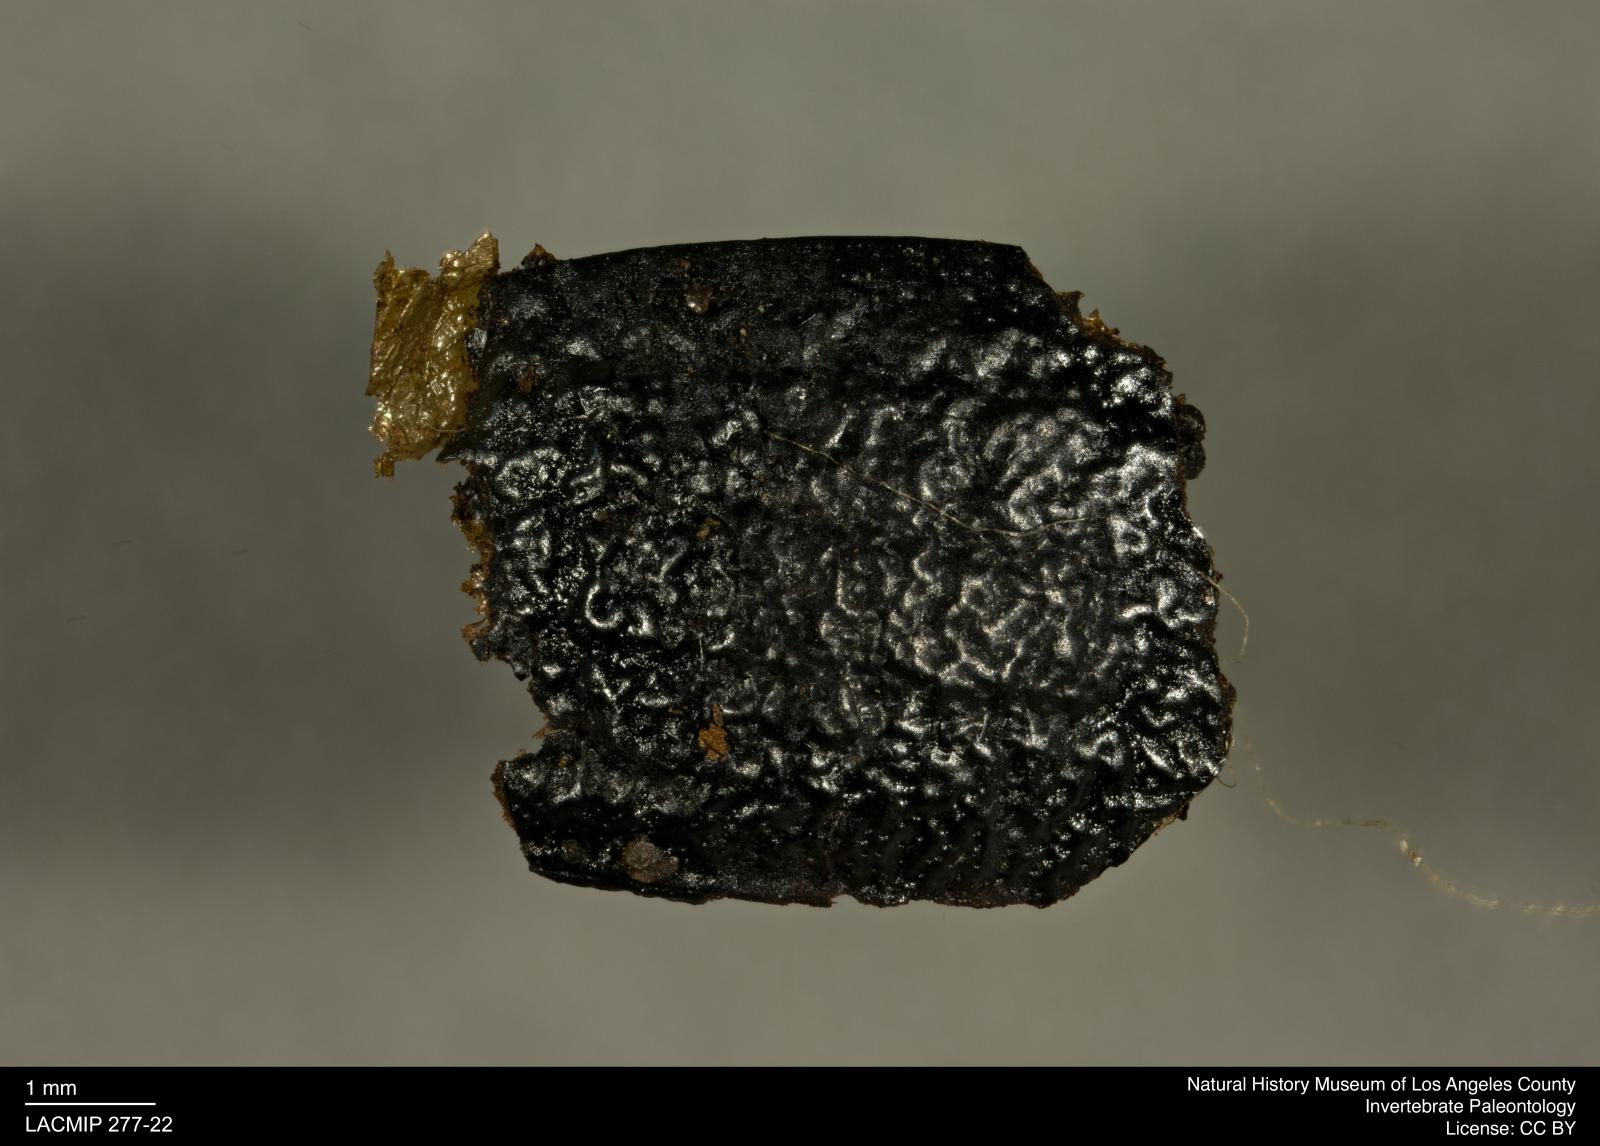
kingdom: Animalia
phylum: Arthropoda
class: Insecta
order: Coleoptera
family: Tenebrionidae
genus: Coniontis
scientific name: Coniontis abdominalis
